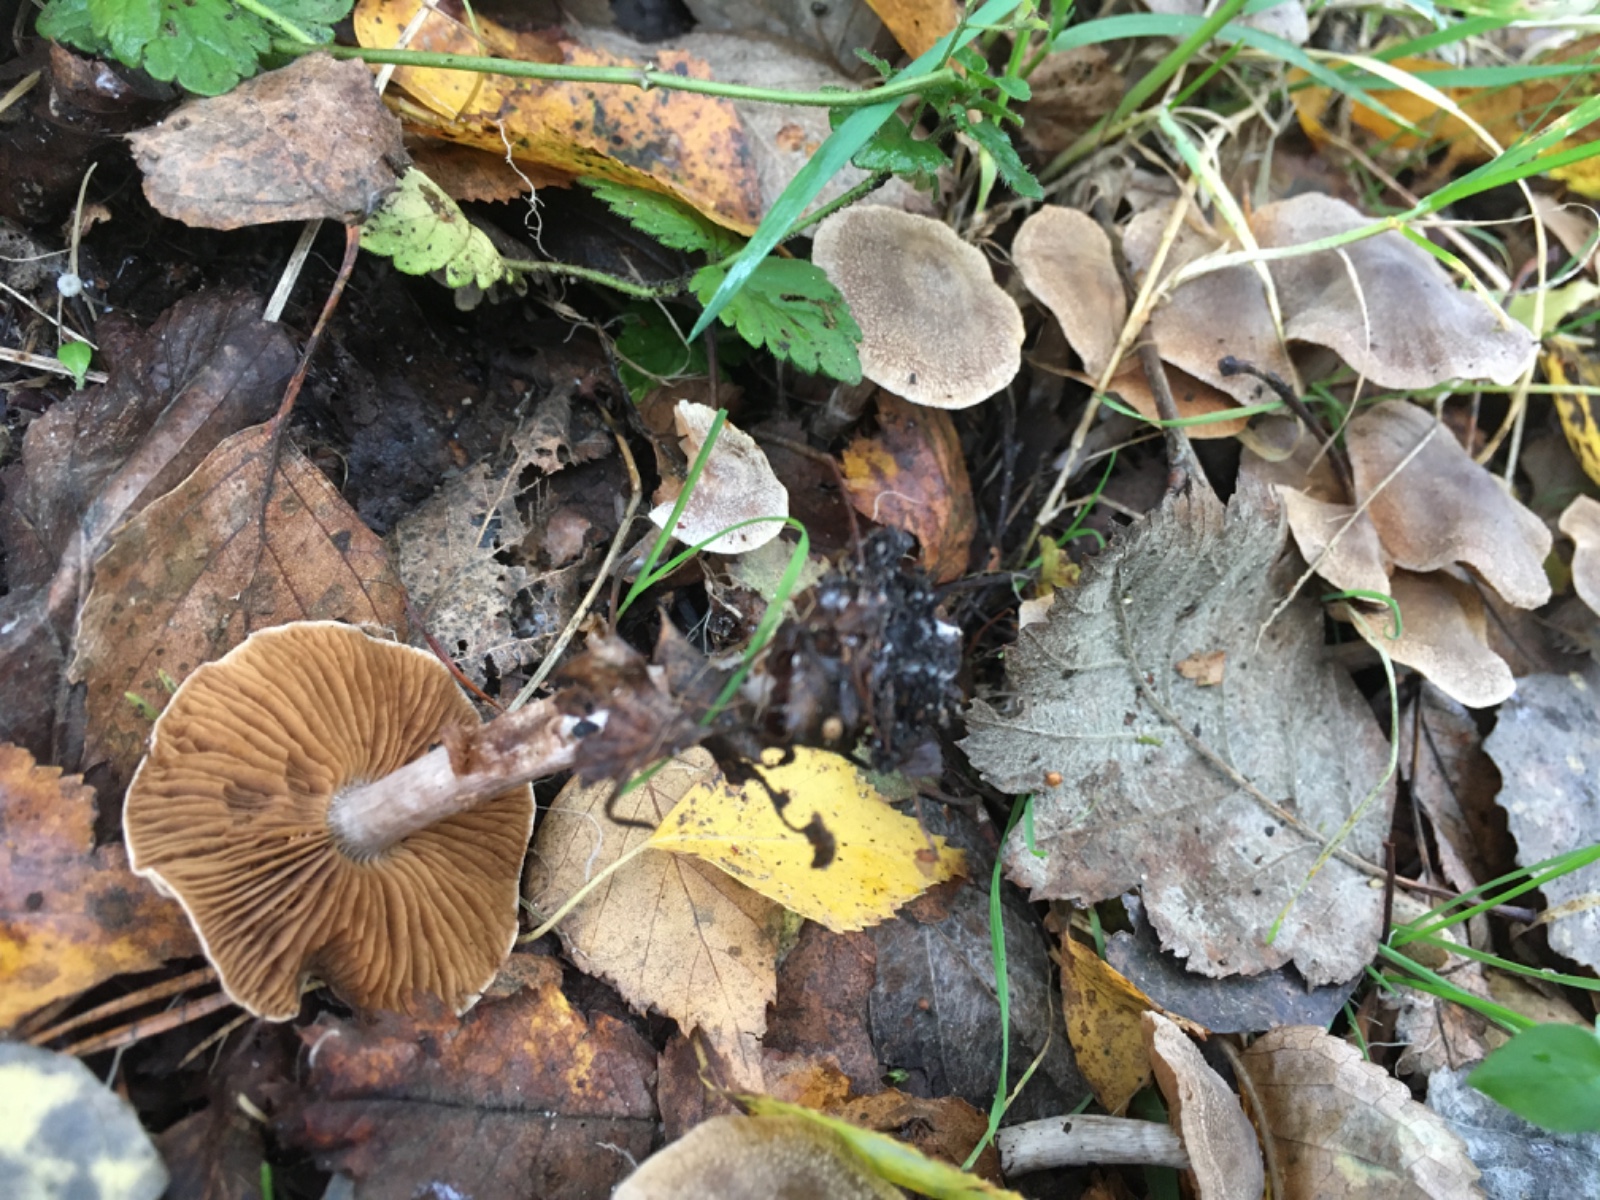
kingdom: Fungi
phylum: Basidiomycota
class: Agaricomycetes
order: Agaricales
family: Cortinariaceae
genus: Cortinarius
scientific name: Cortinarius hemitrichus
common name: hvidfnugget slørhat
